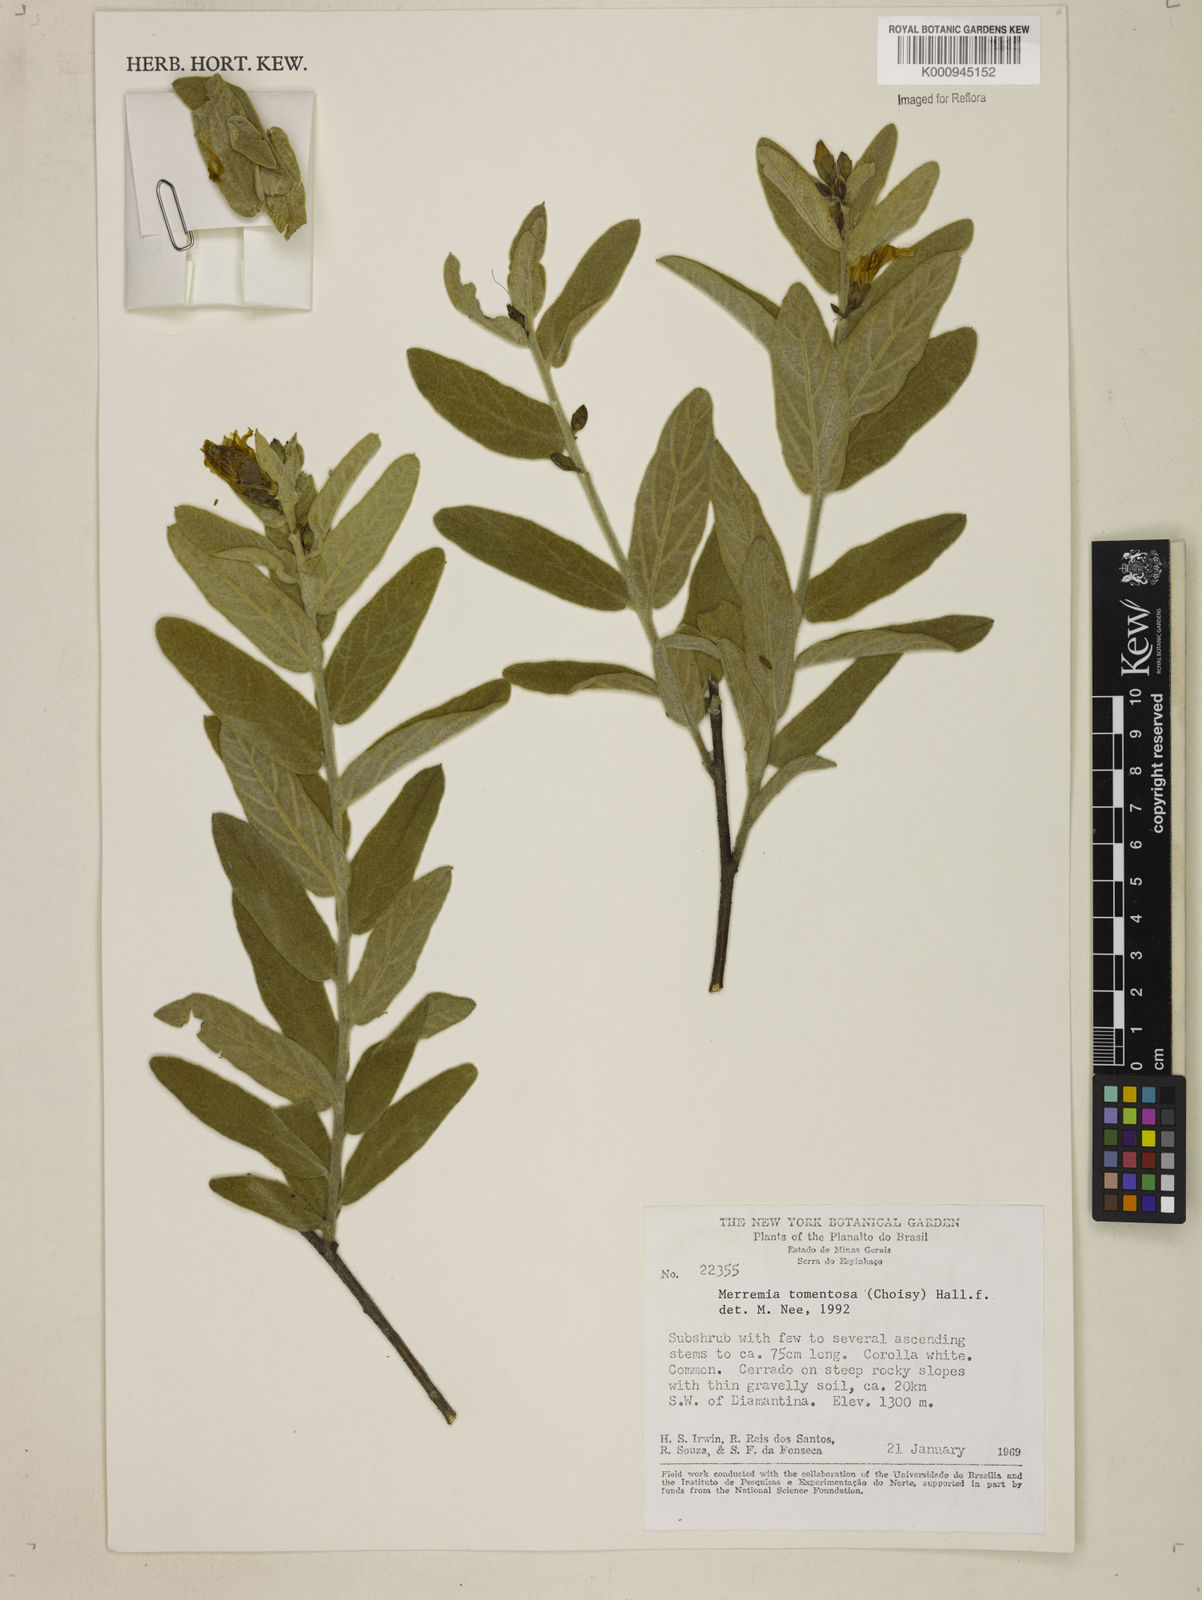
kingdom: Plantae
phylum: Tracheophyta
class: Magnoliopsida
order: Solanales
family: Convolvulaceae
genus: Distimake
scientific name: Distimake tomentosus
